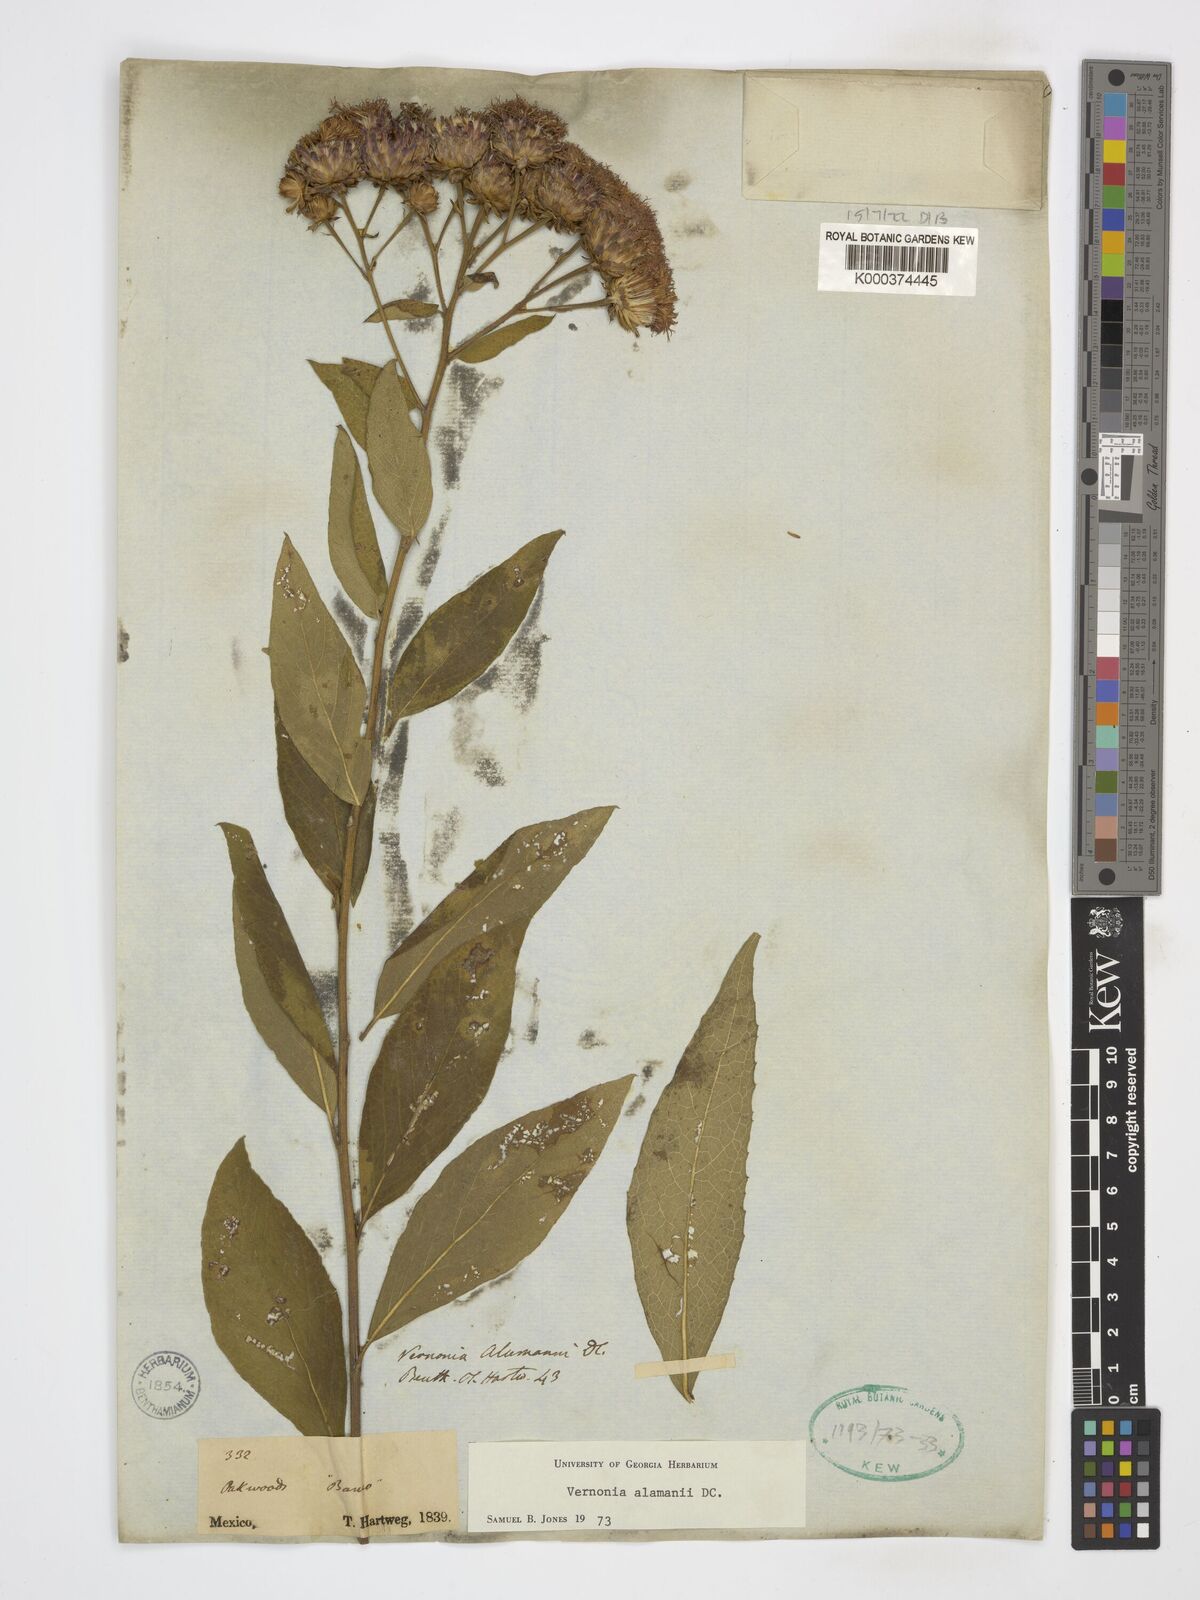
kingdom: Plantae
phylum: Tracheophyta
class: Magnoliopsida
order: Asterales
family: Asteraceae
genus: Vernonanthura
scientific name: Vernonanthura alamanii
